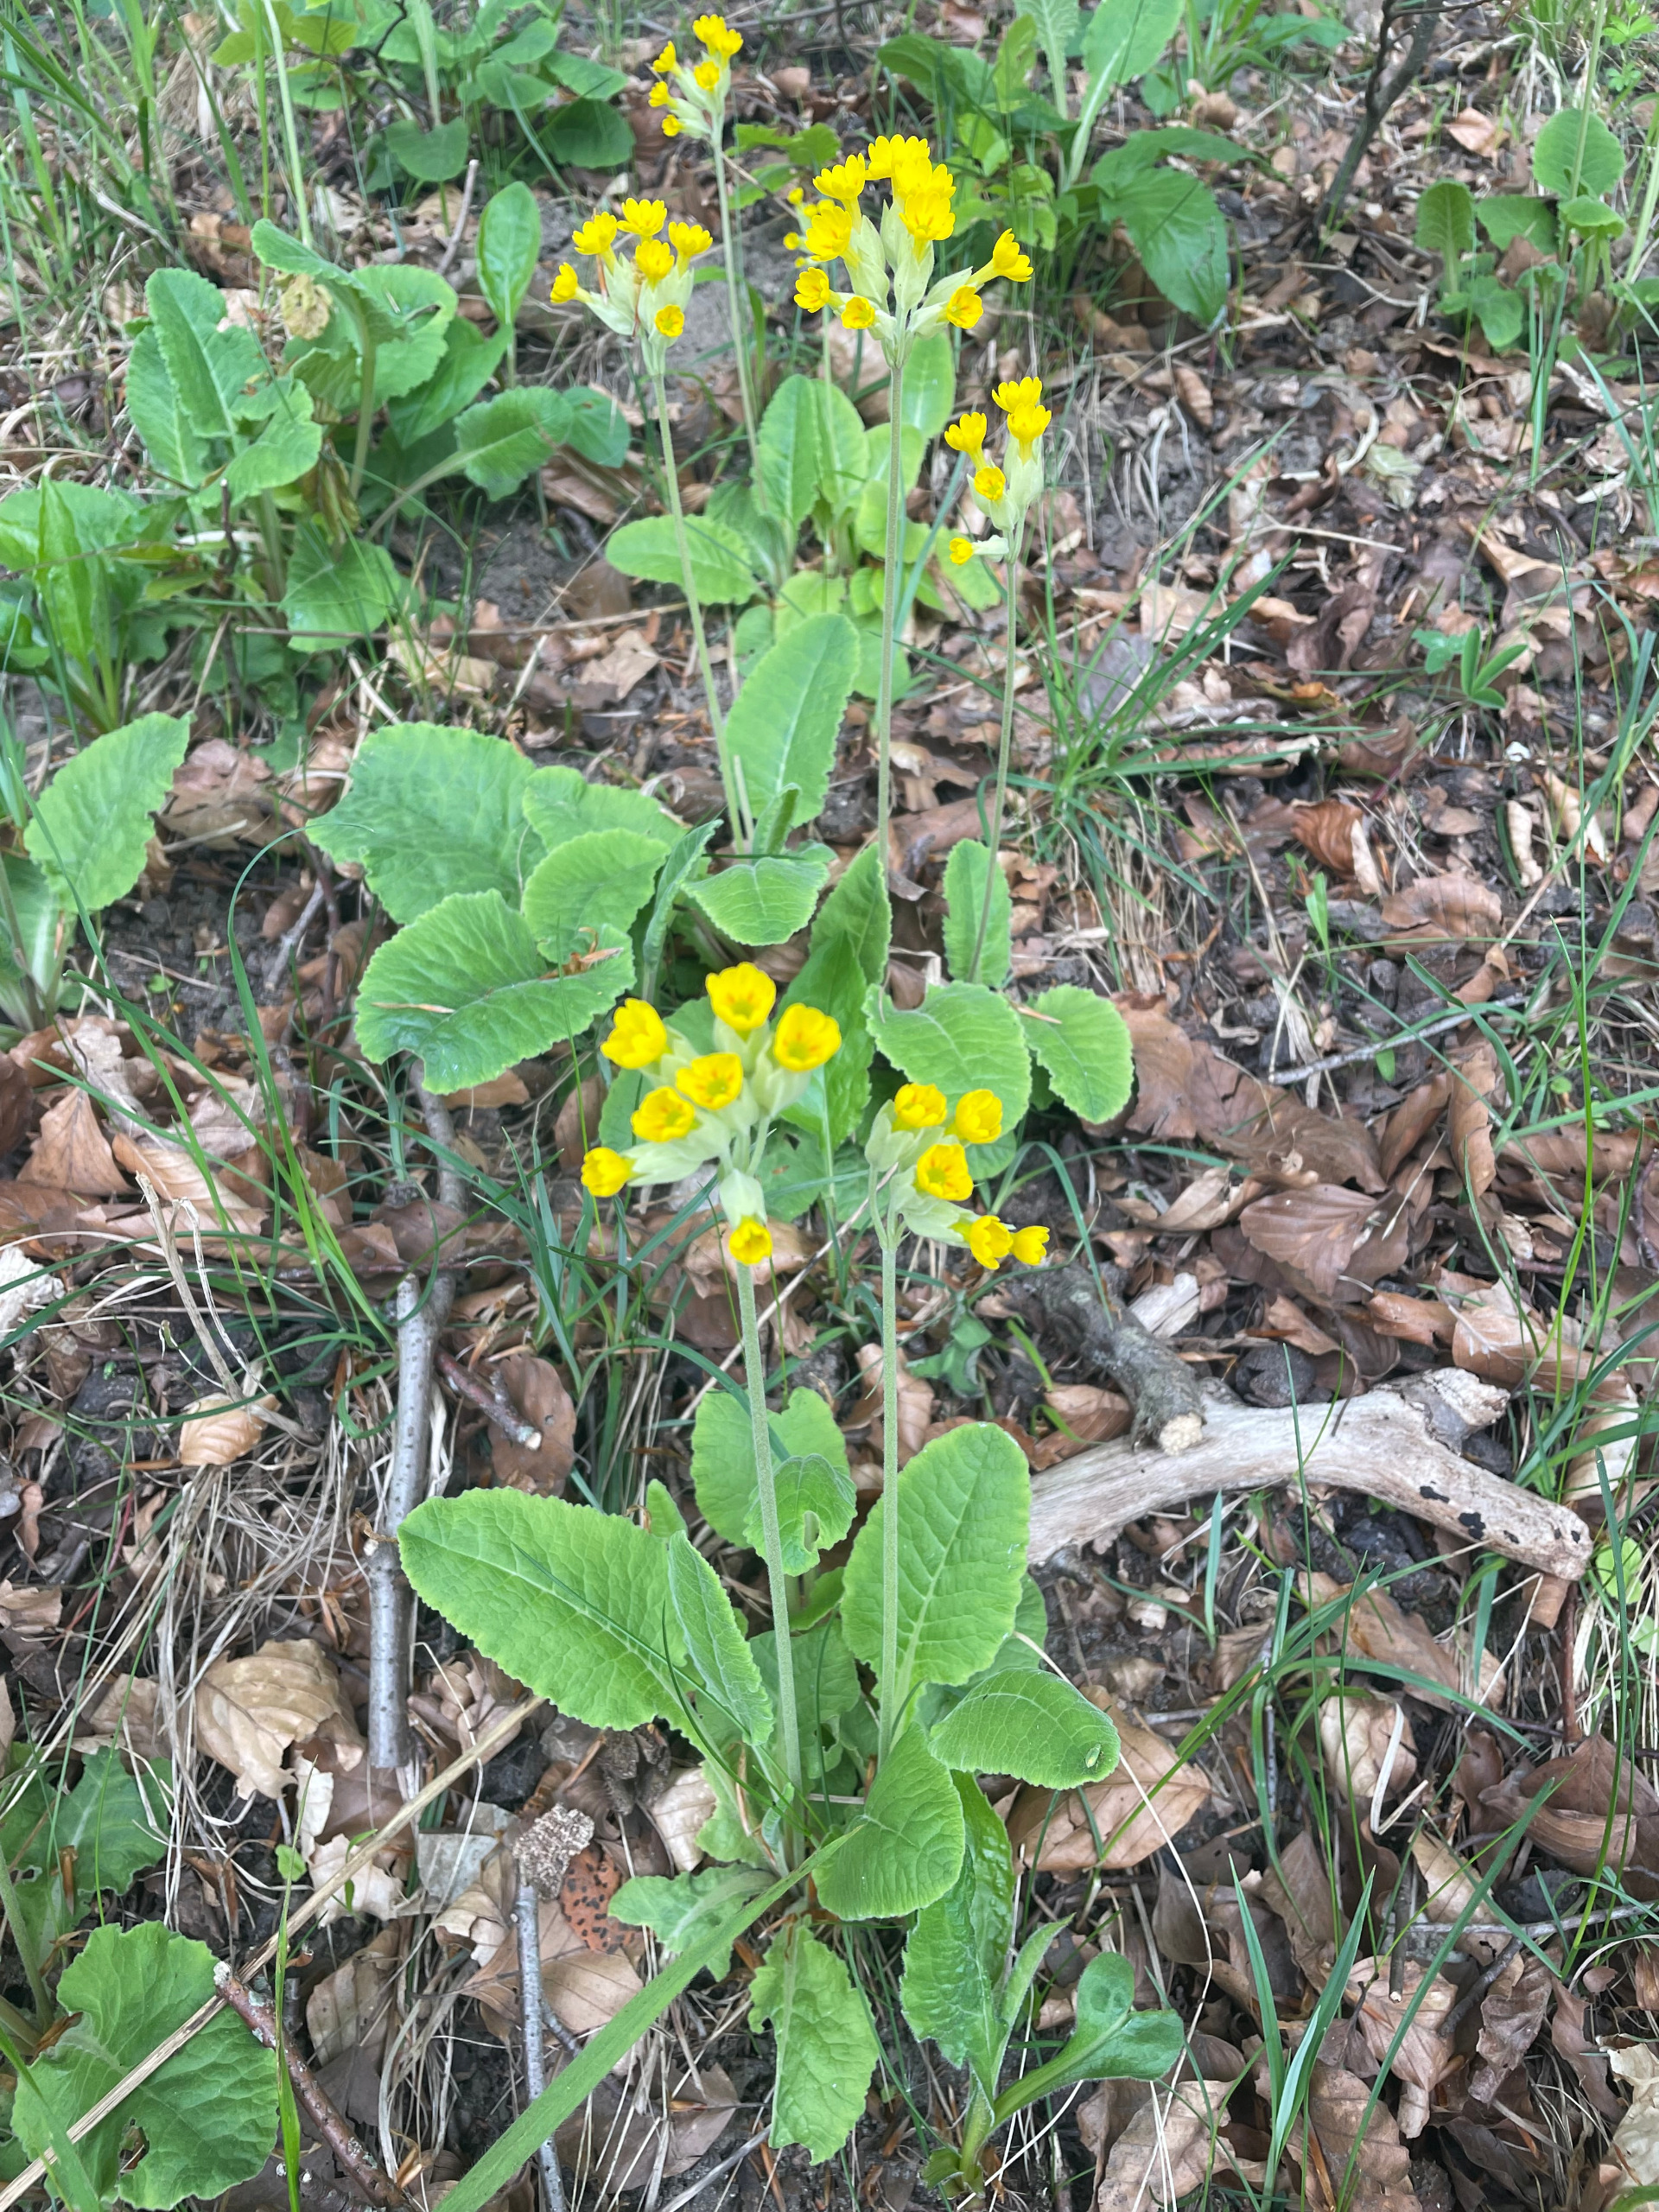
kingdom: Plantae
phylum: Tracheophyta
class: Magnoliopsida
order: Ericales
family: Primulaceae
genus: Primula
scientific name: Primula veris
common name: Hulkravet kodriver
